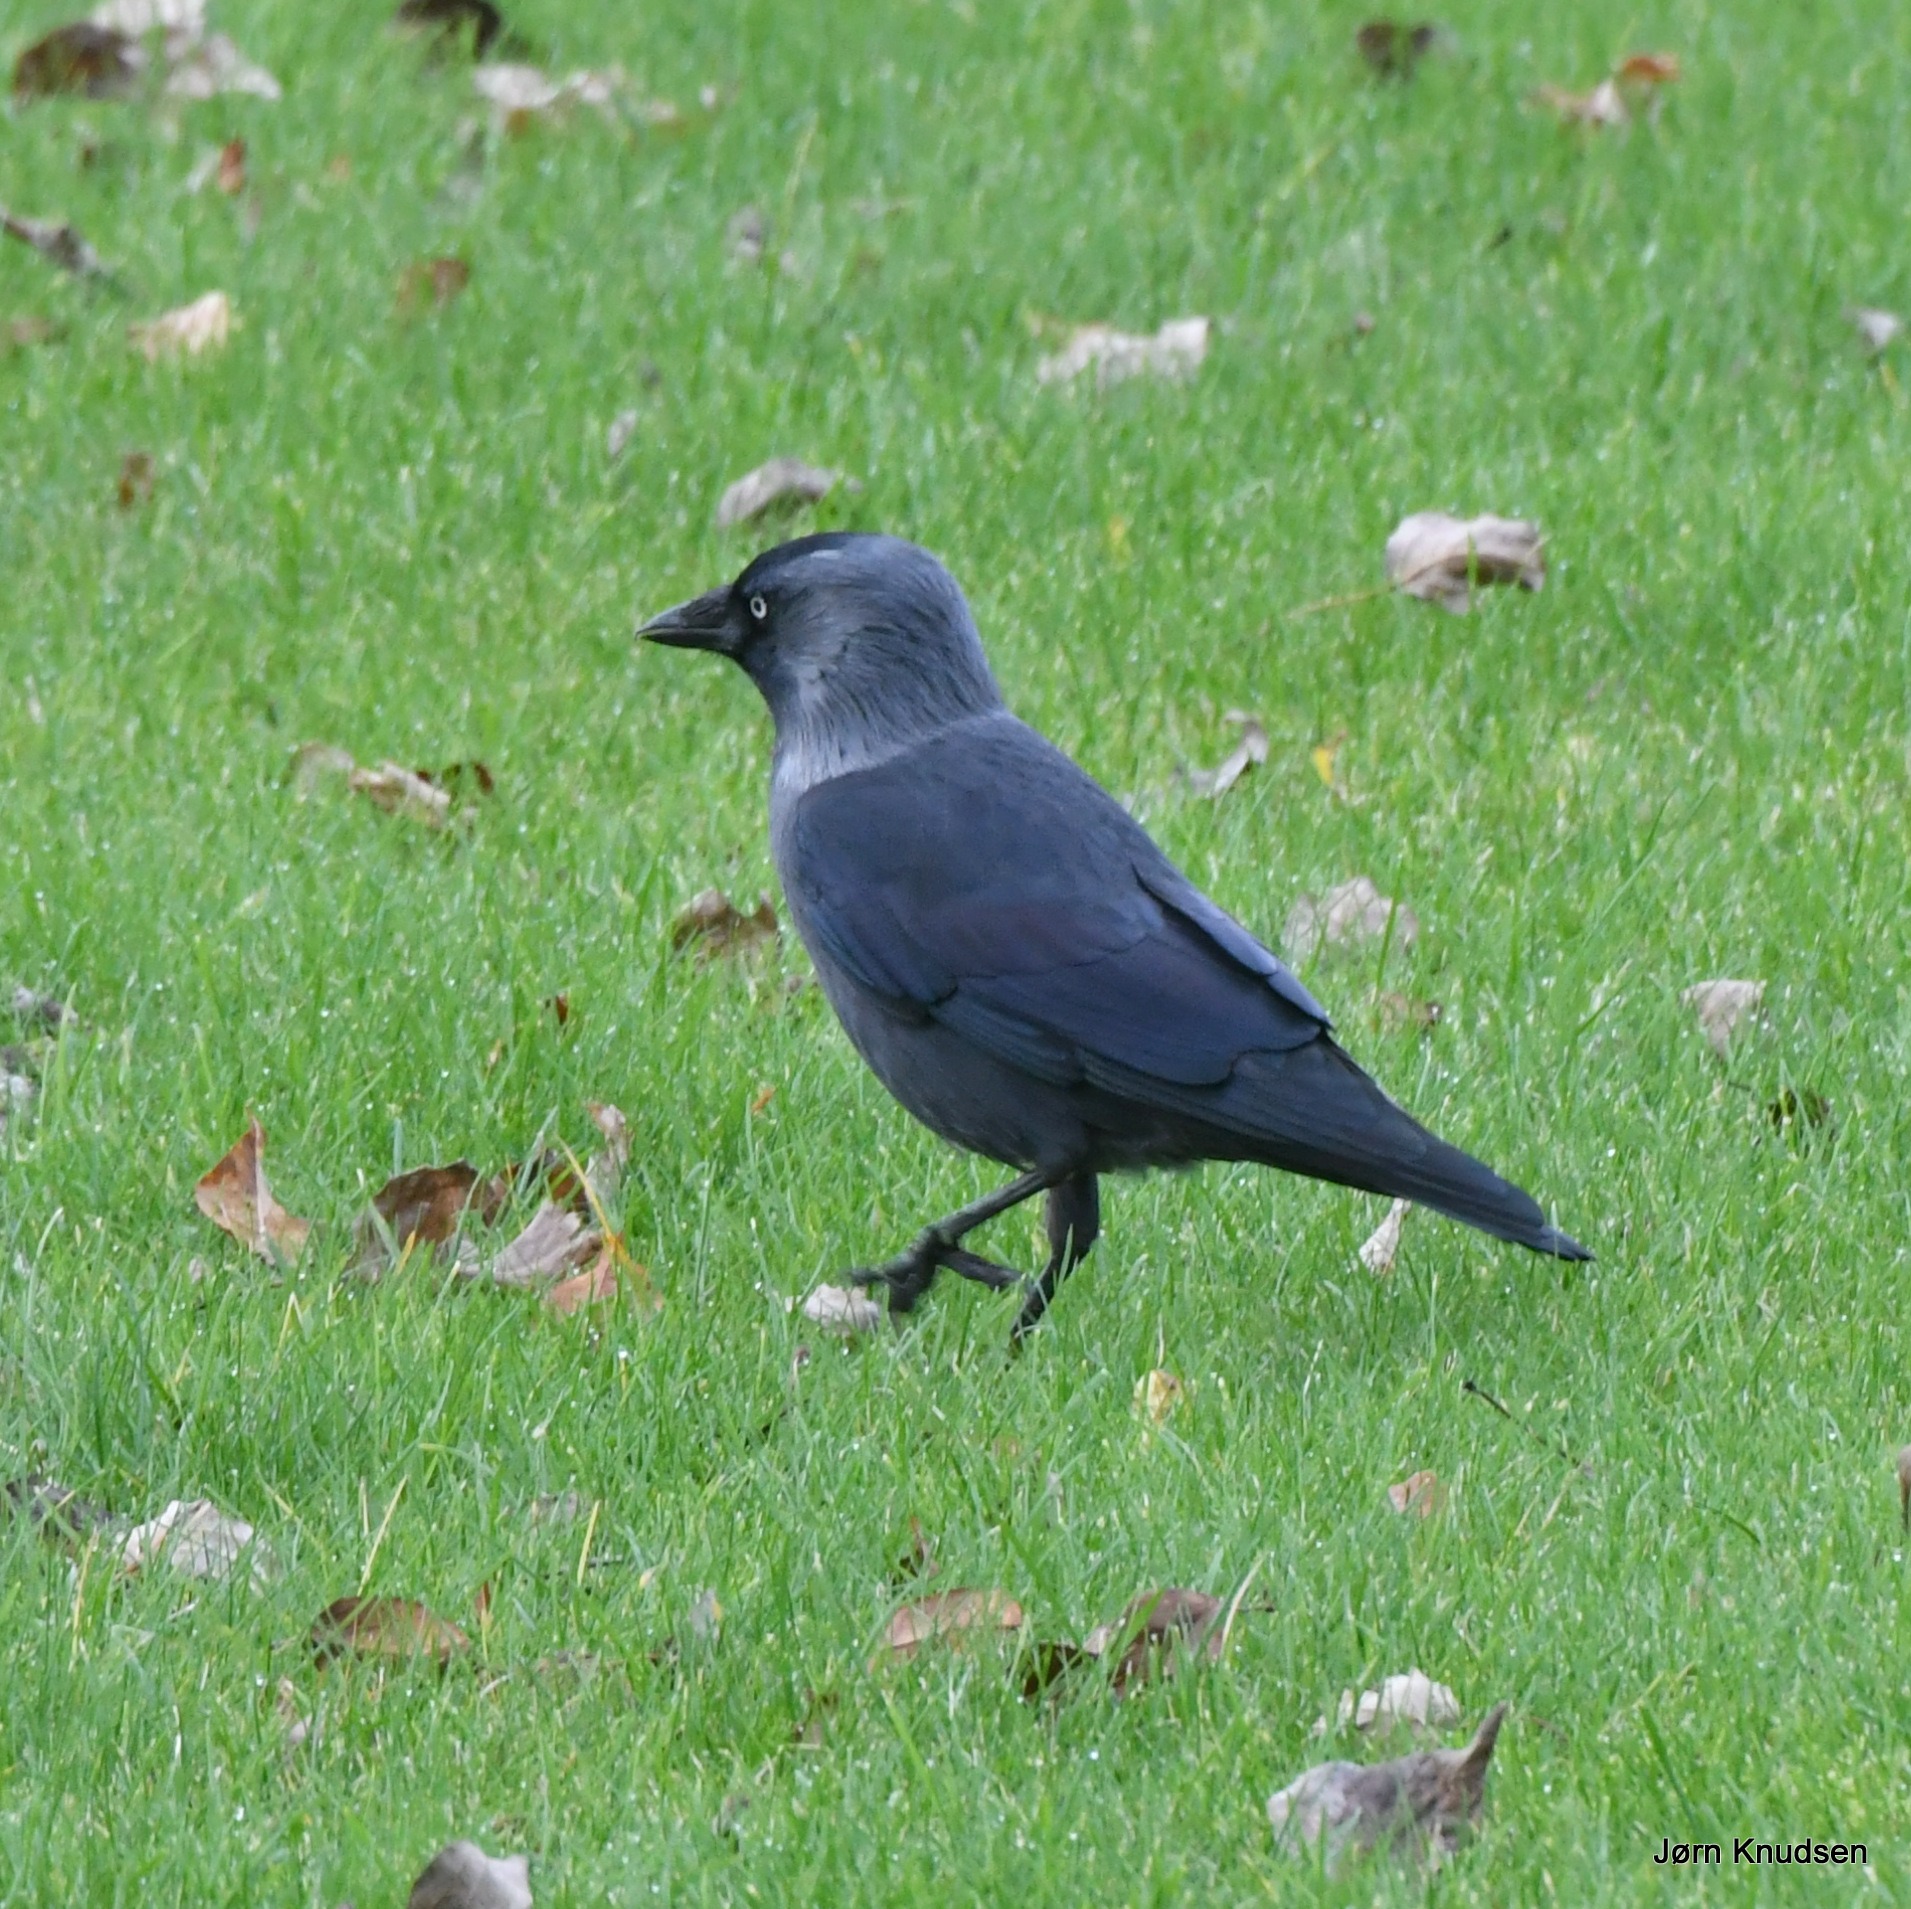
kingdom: Animalia
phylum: Chordata
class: Aves
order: Passeriformes
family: Corvidae
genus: Coloeus
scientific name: Coloeus monedula
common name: Allike
